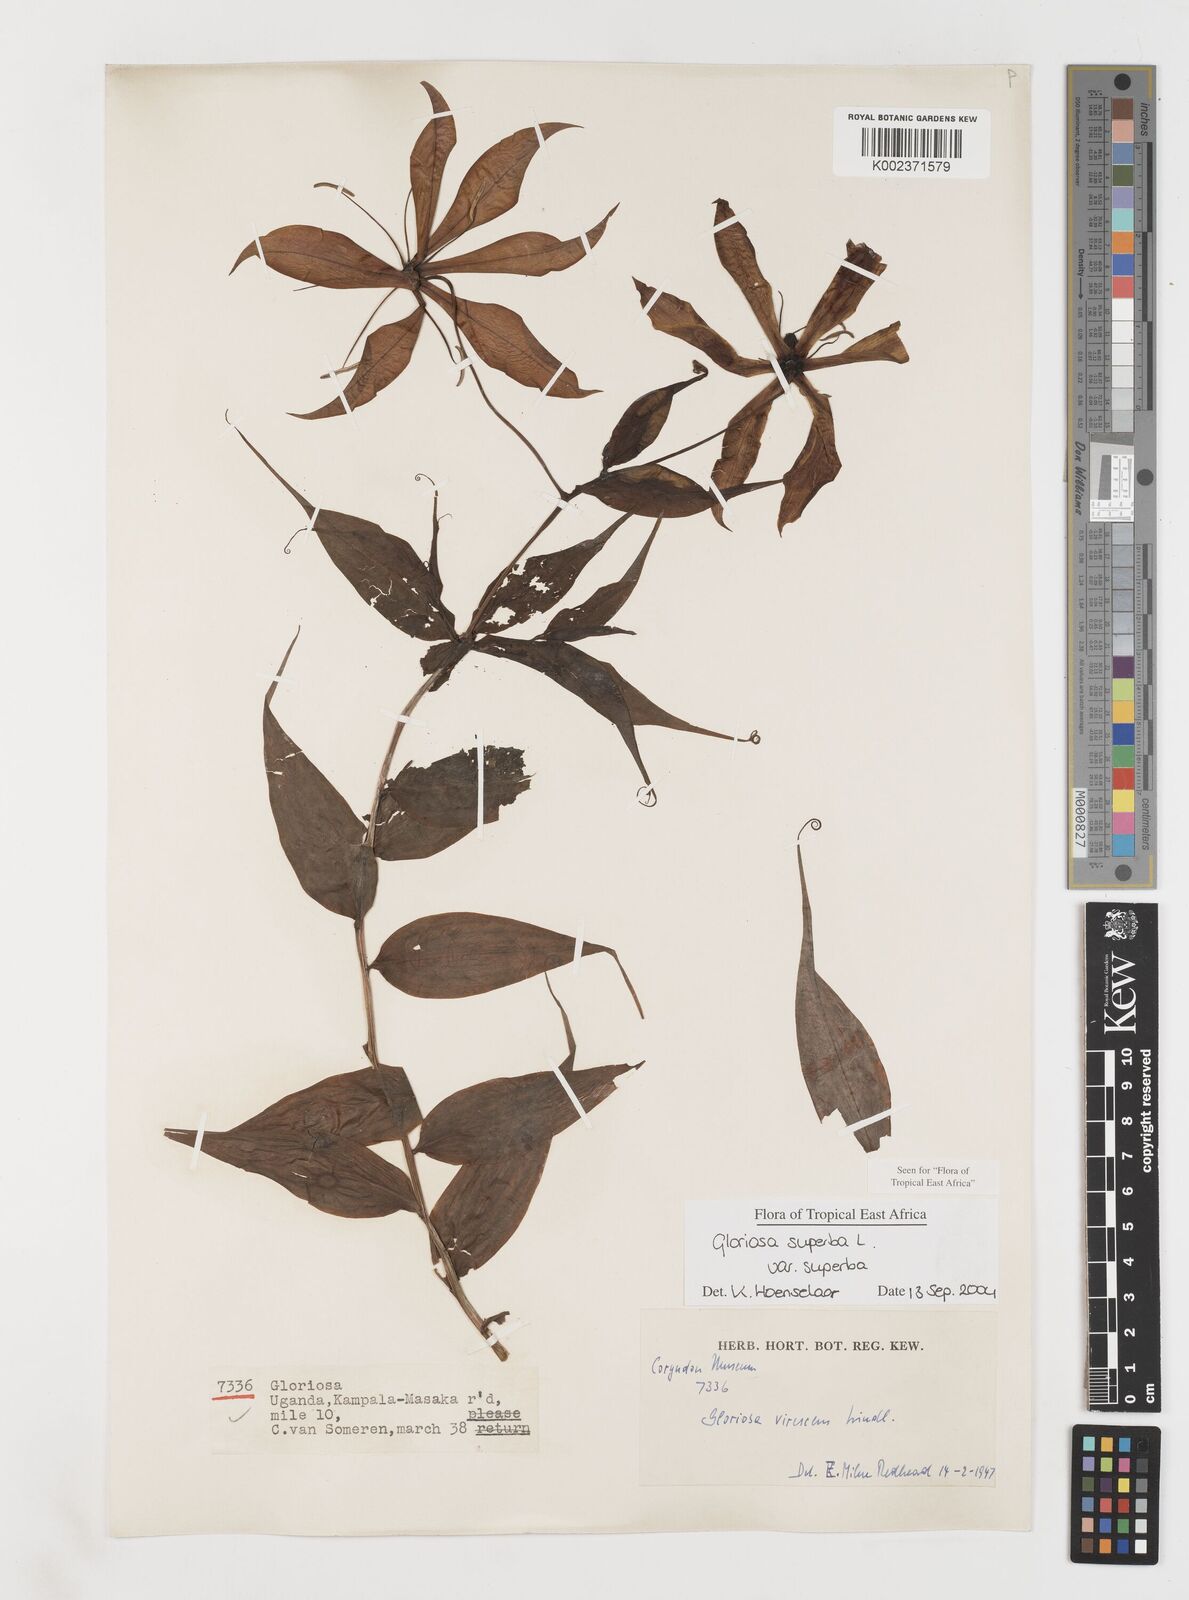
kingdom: Plantae
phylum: Tracheophyta
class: Liliopsida
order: Liliales
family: Colchicaceae
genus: Gloriosa
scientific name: Gloriosa simplex
